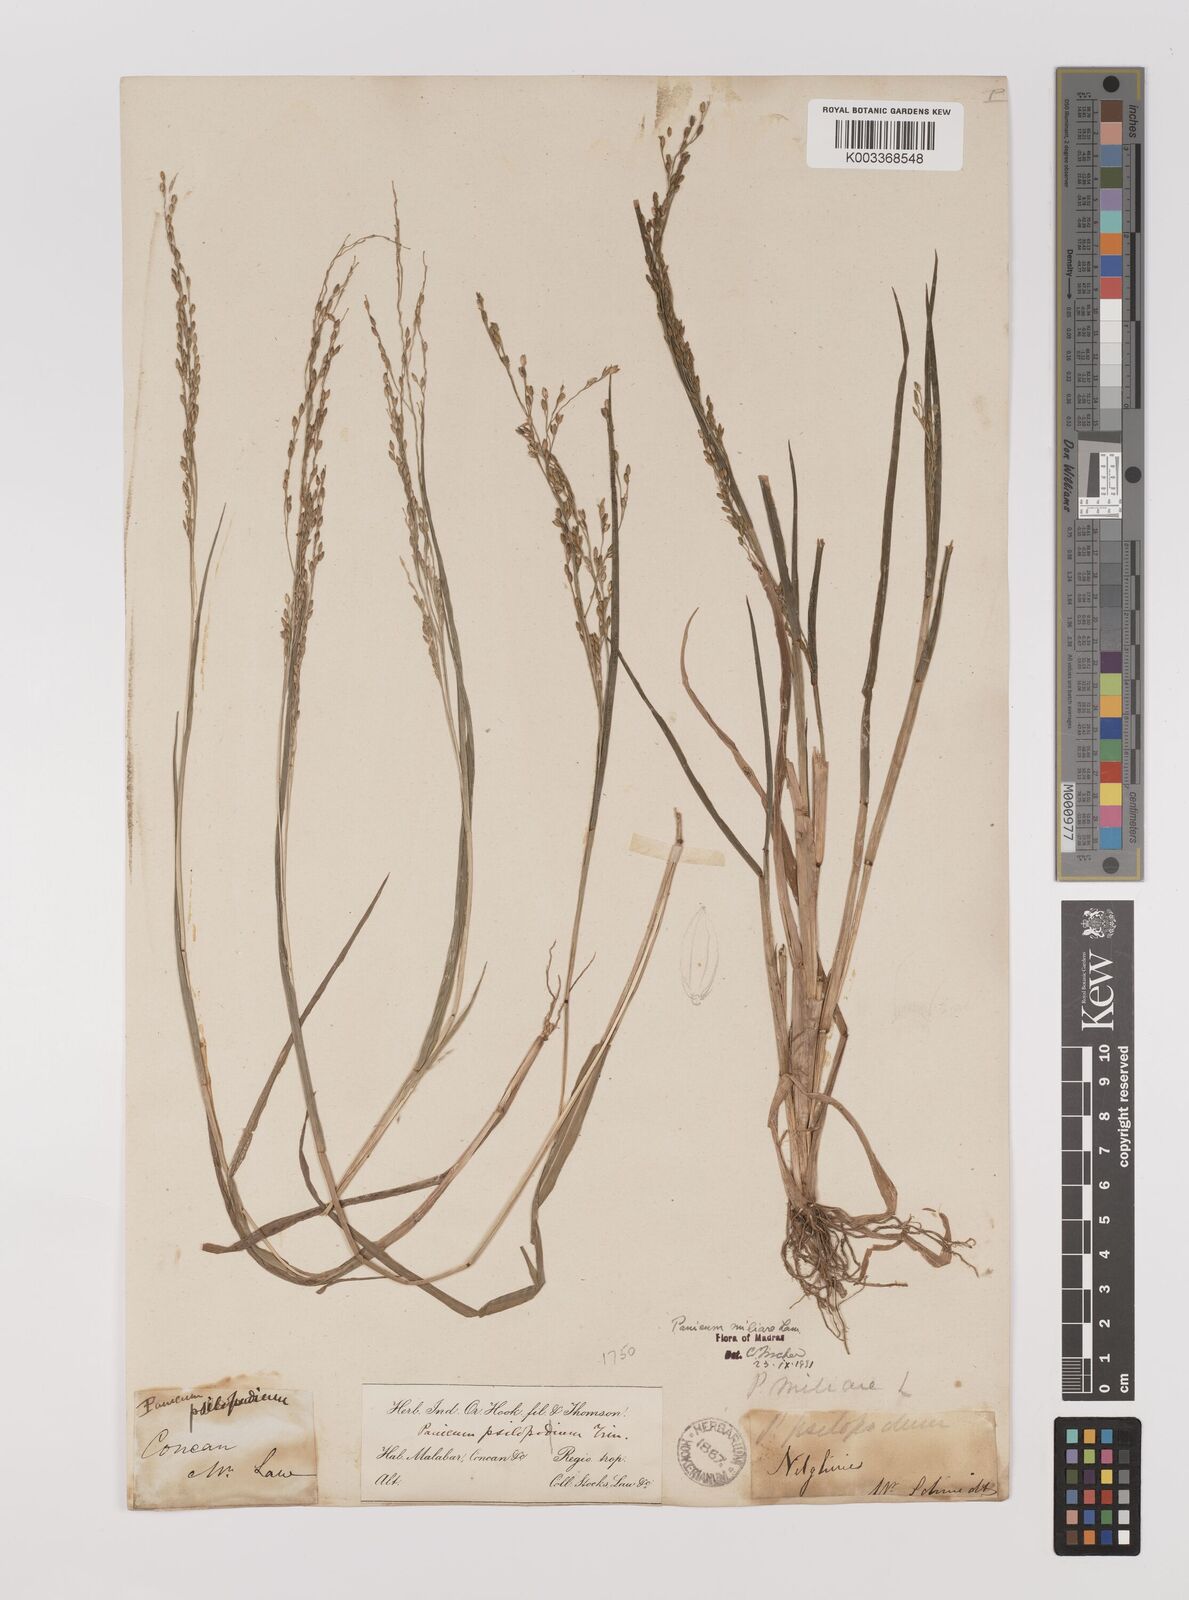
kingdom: Plantae
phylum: Tracheophyta
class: Liliopsida
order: Poales
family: Poaceae
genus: Panicum
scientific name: Panicum sumatrense
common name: Little millet
